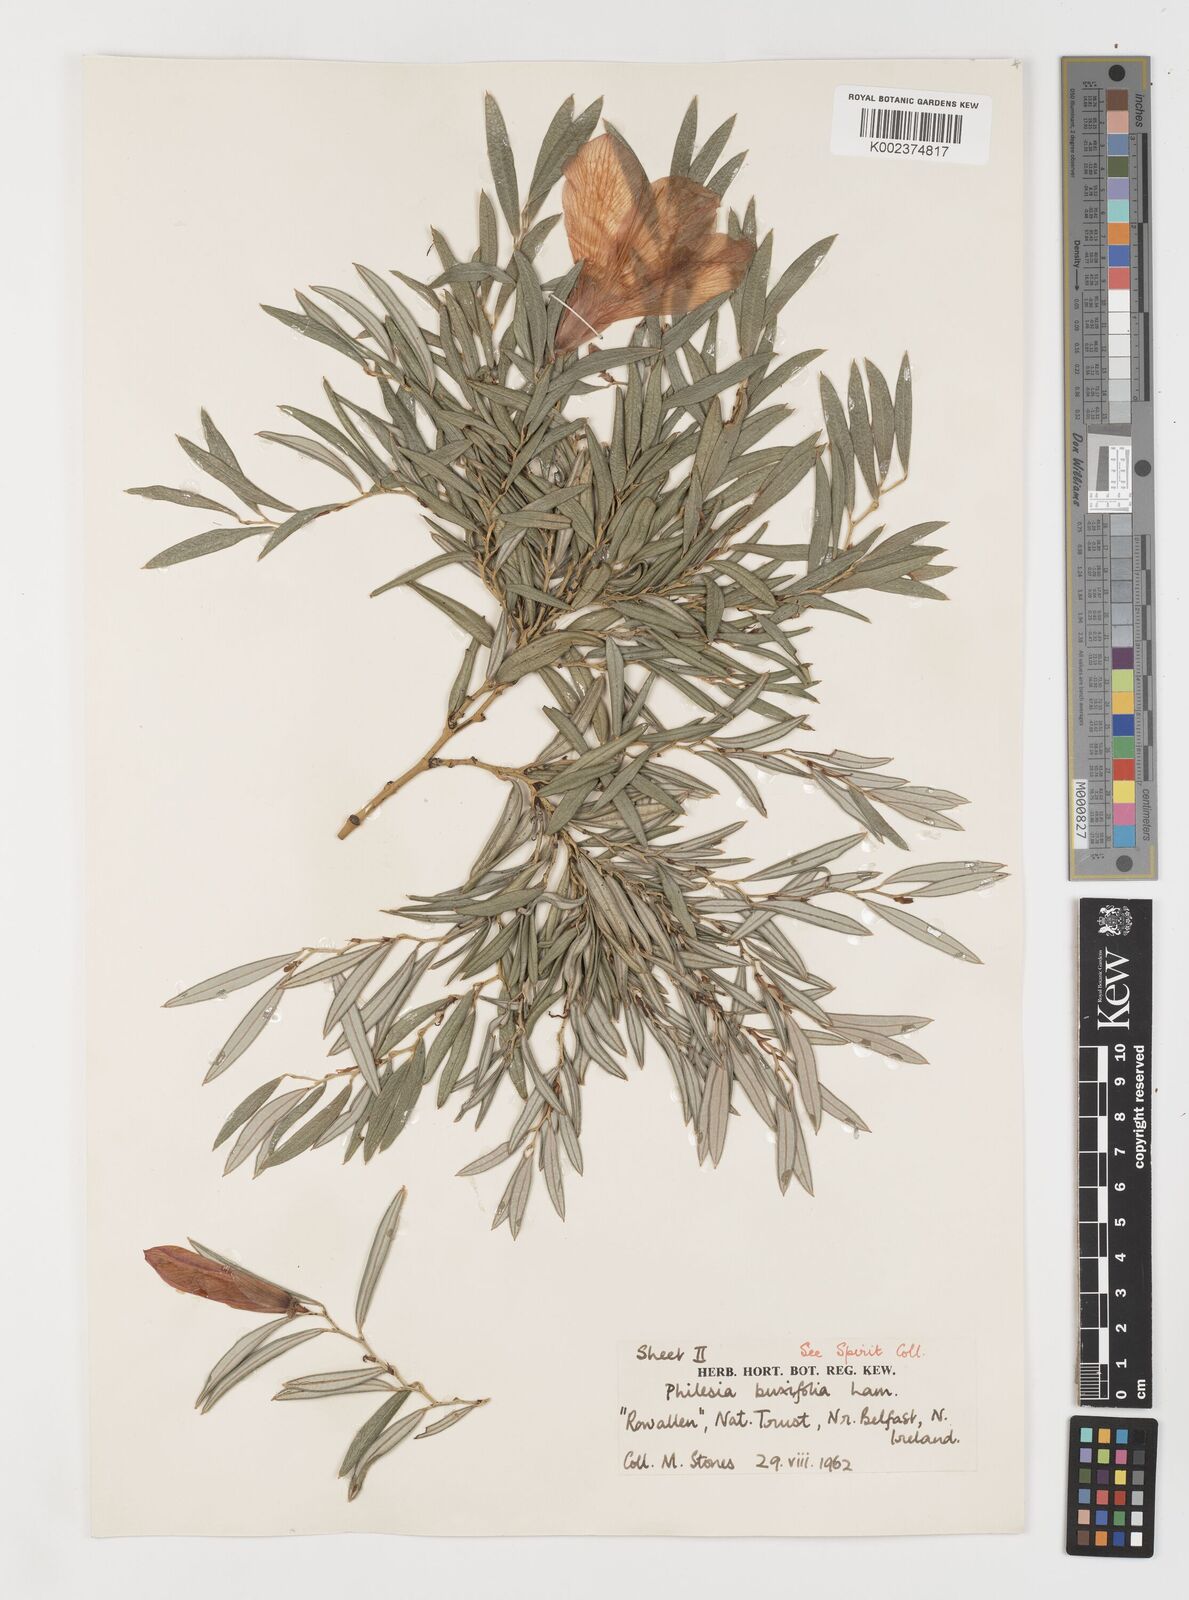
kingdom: Plantae
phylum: Tracheophyta
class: Liliopsida
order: Liliales
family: Philesiaceae
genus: Philesia
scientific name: Philesia magellanica
